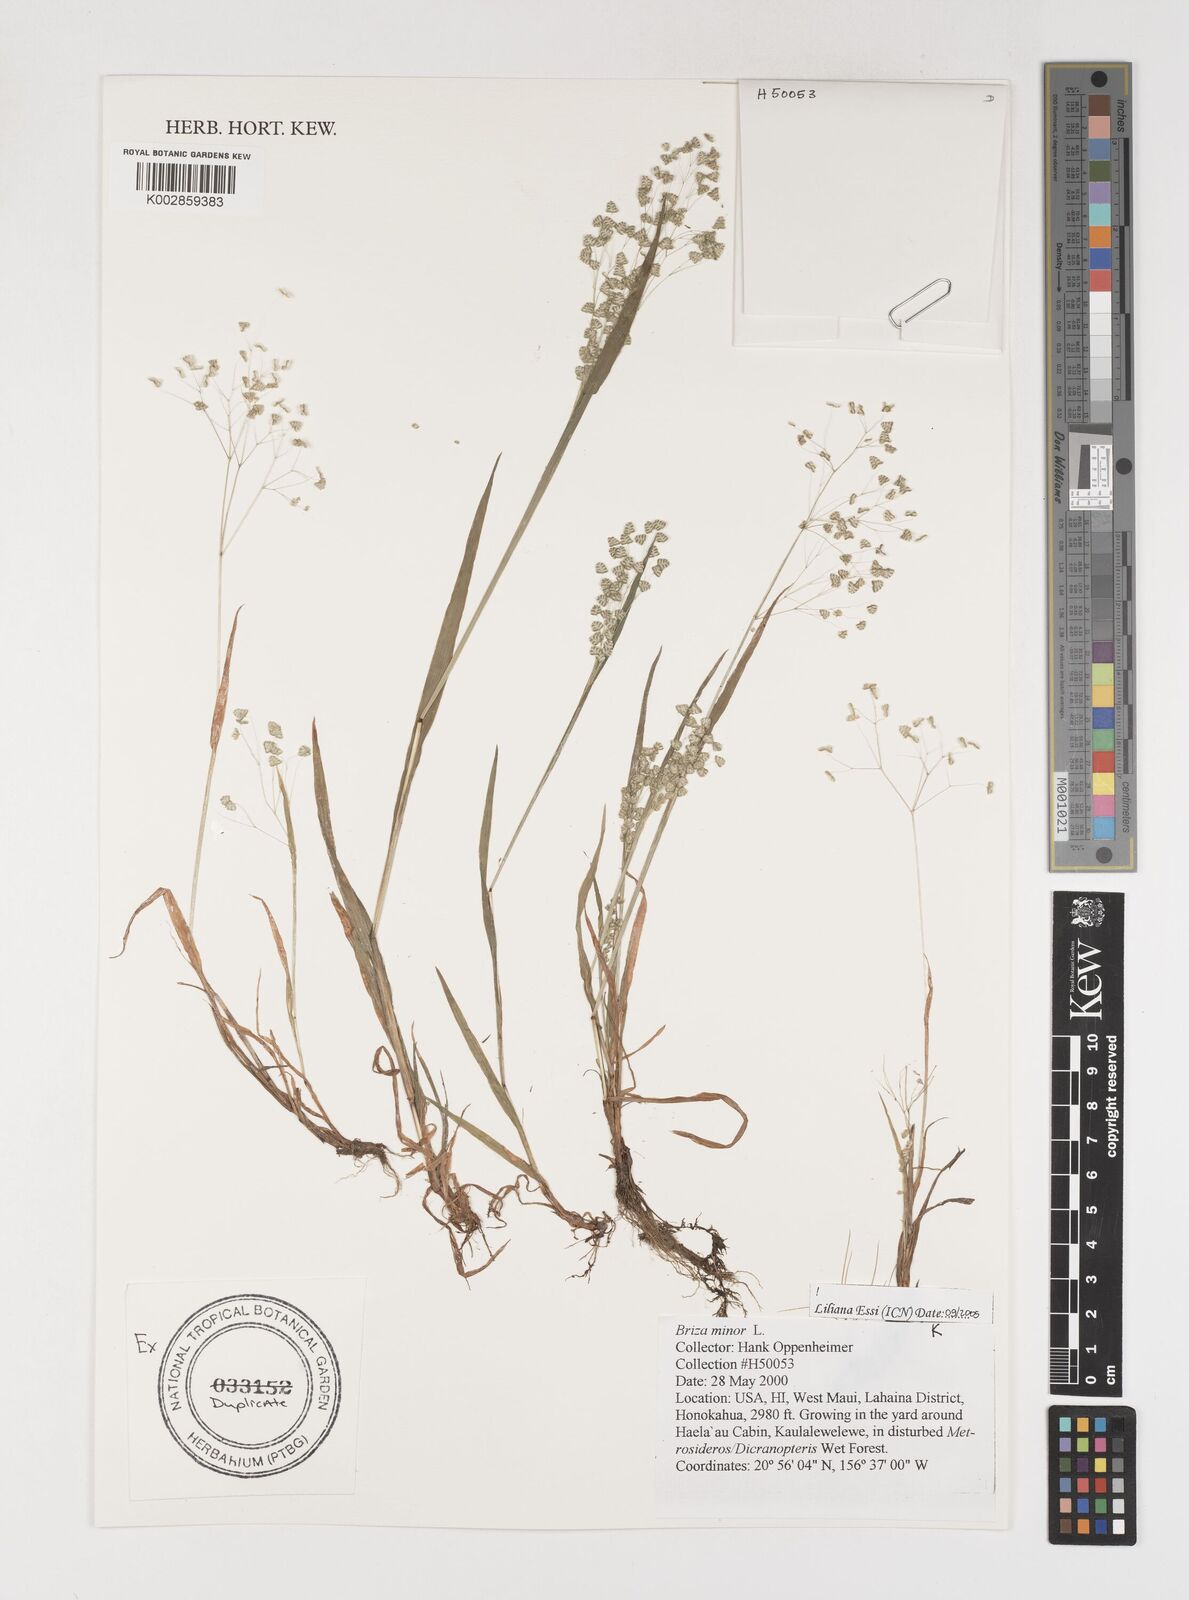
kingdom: Plantae
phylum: Tracheophyta
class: Liliopsida
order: Poales
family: Poaceae
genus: Briza
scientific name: Briza minor
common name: Lesser quaking-grass
